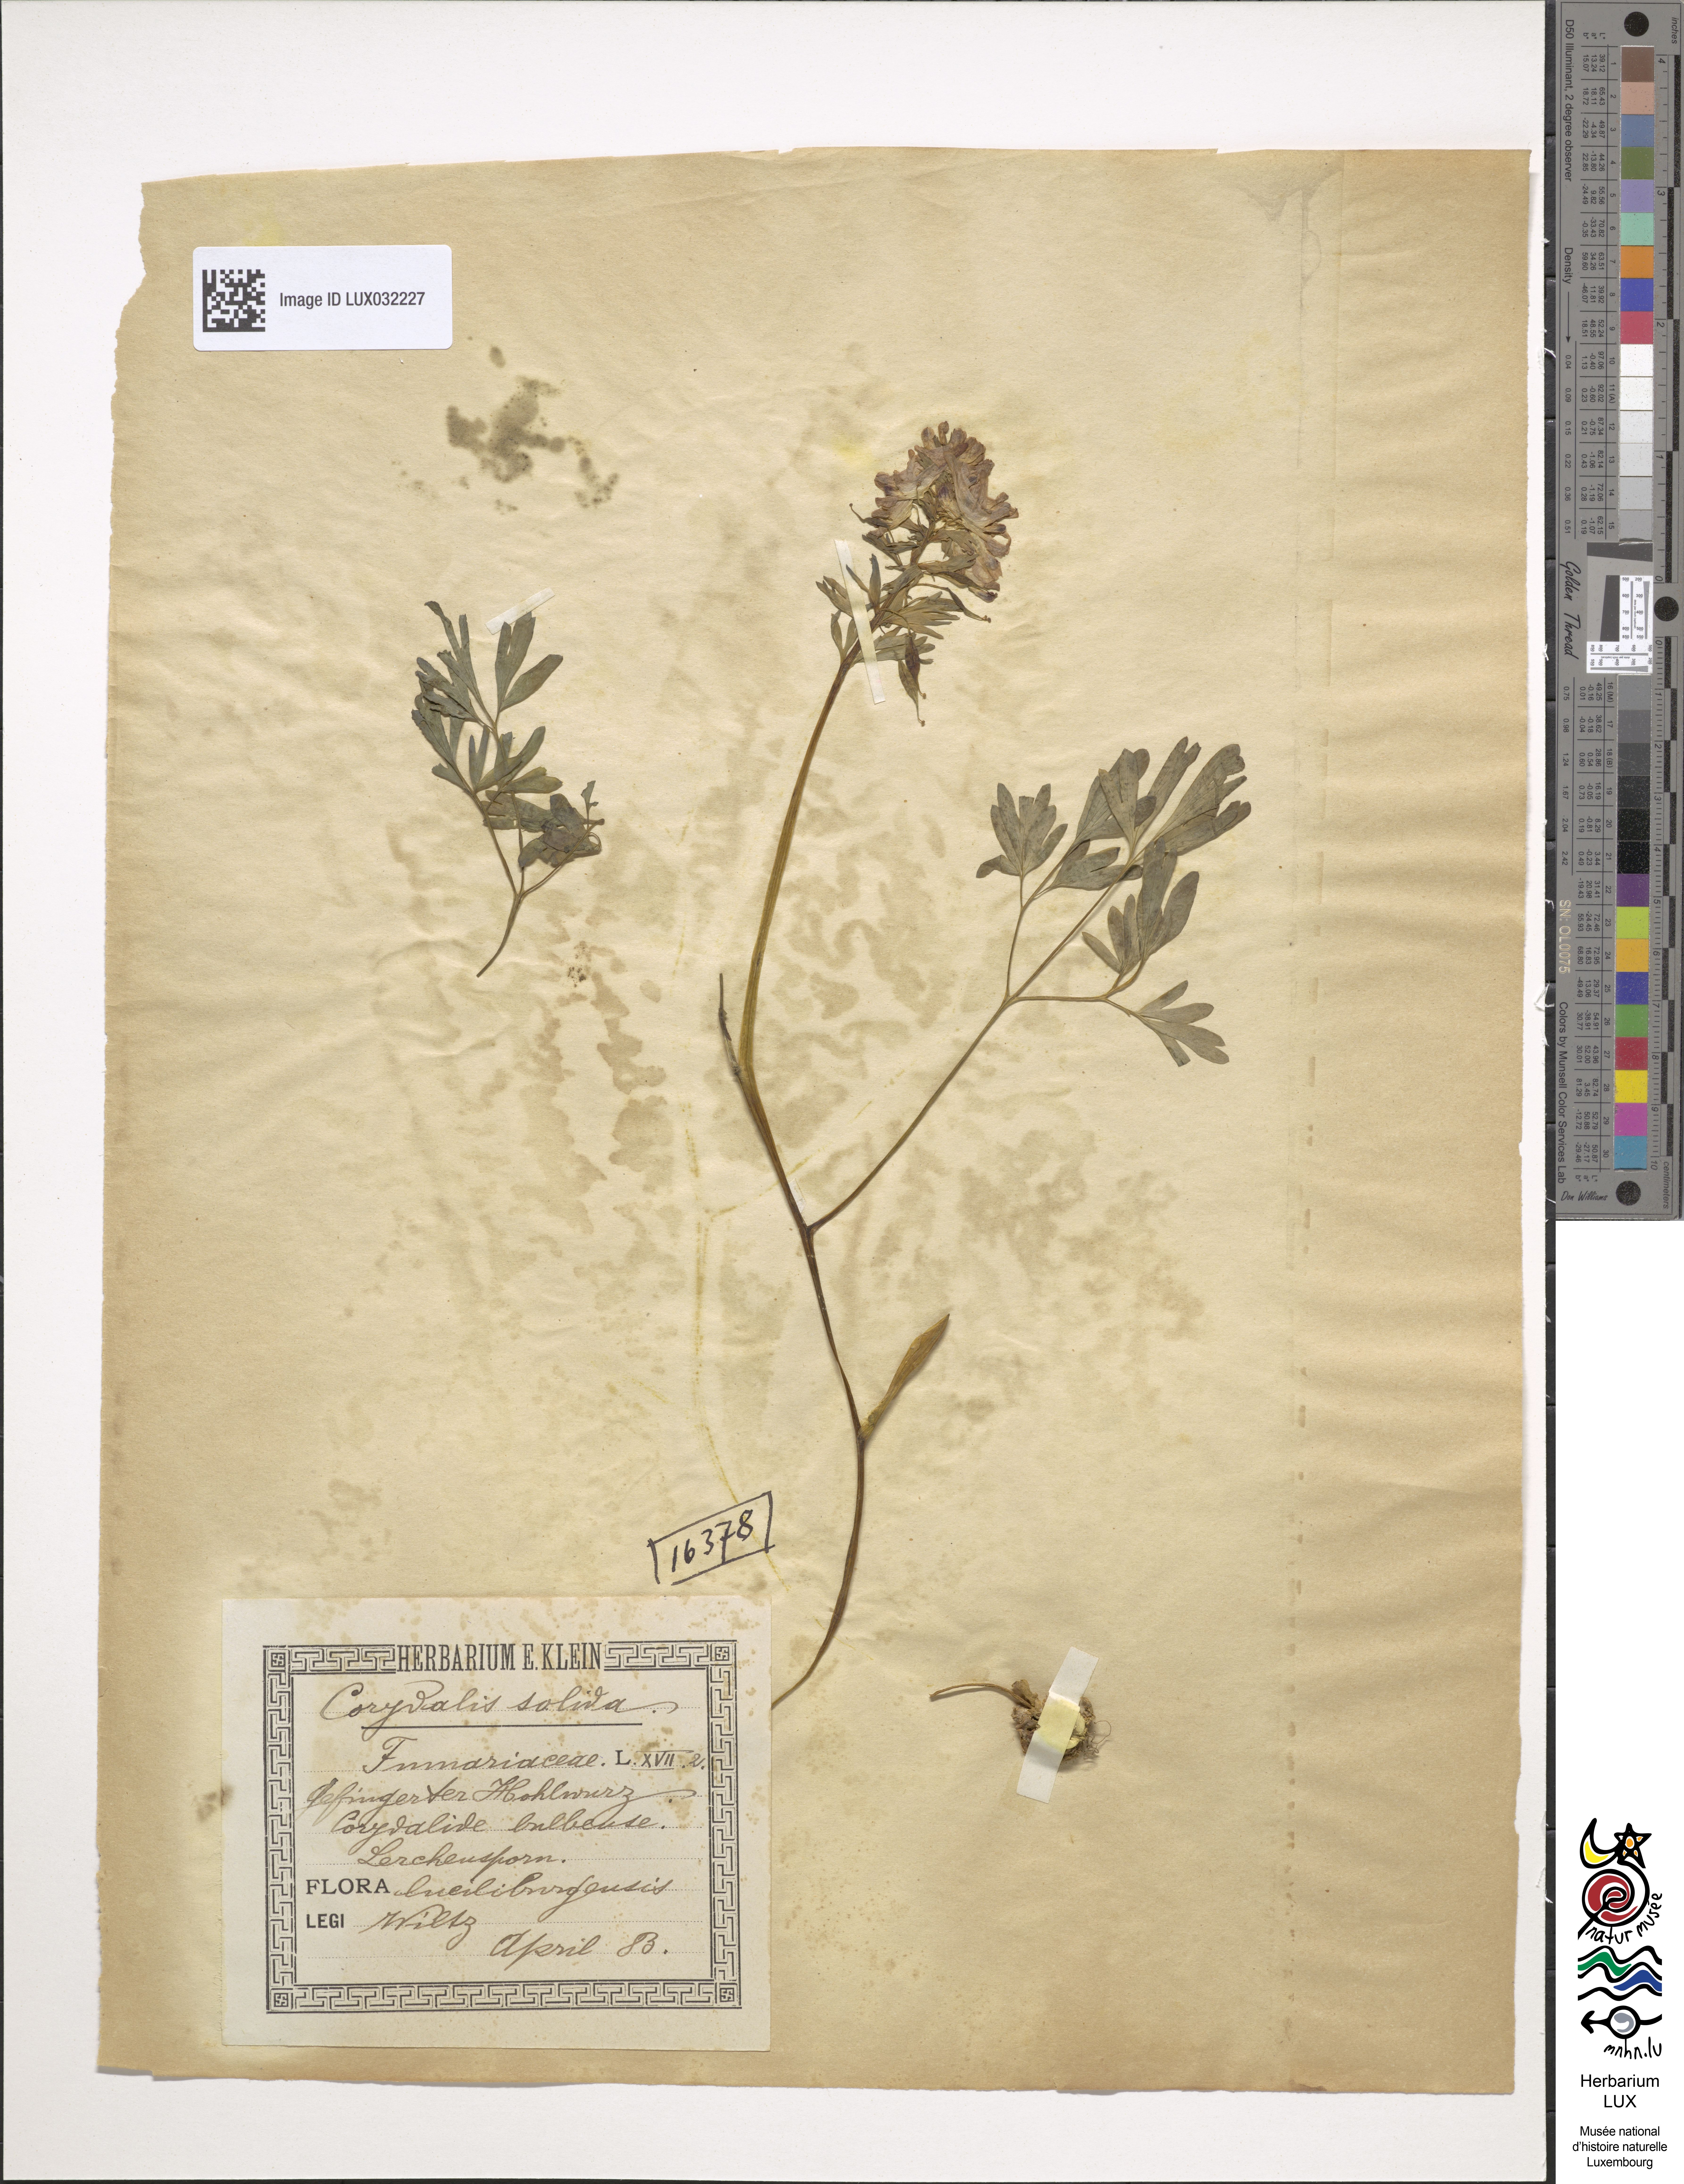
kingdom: Plantae
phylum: Tracheophyta
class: Magnoliopsida
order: Ranunculales
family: Papaveraceae
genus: Corydalis
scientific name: Corydalis solida
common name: Bird-in-a-bush
